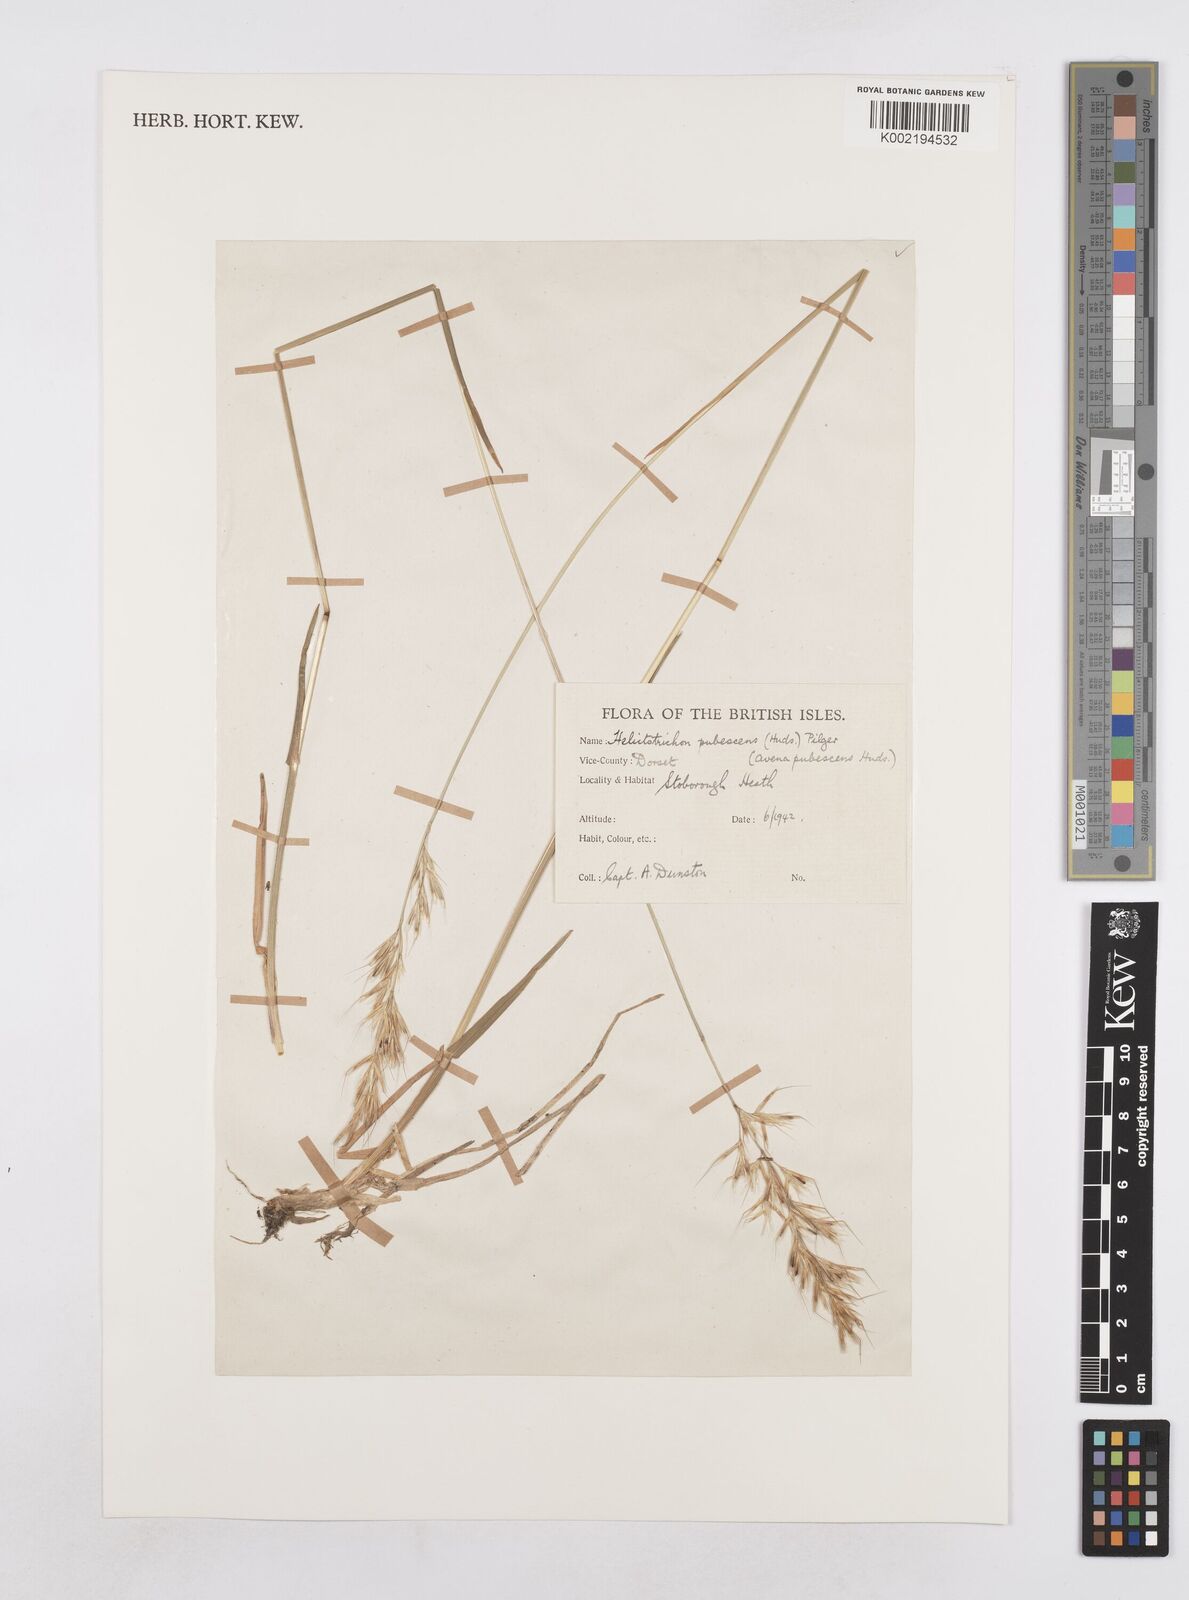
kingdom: Plantae
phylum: Tracheophyta
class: Liliopsida
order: Poales
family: Poaceae
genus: Avenula
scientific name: Avenula pubescens
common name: Downy alpine oatgrass
